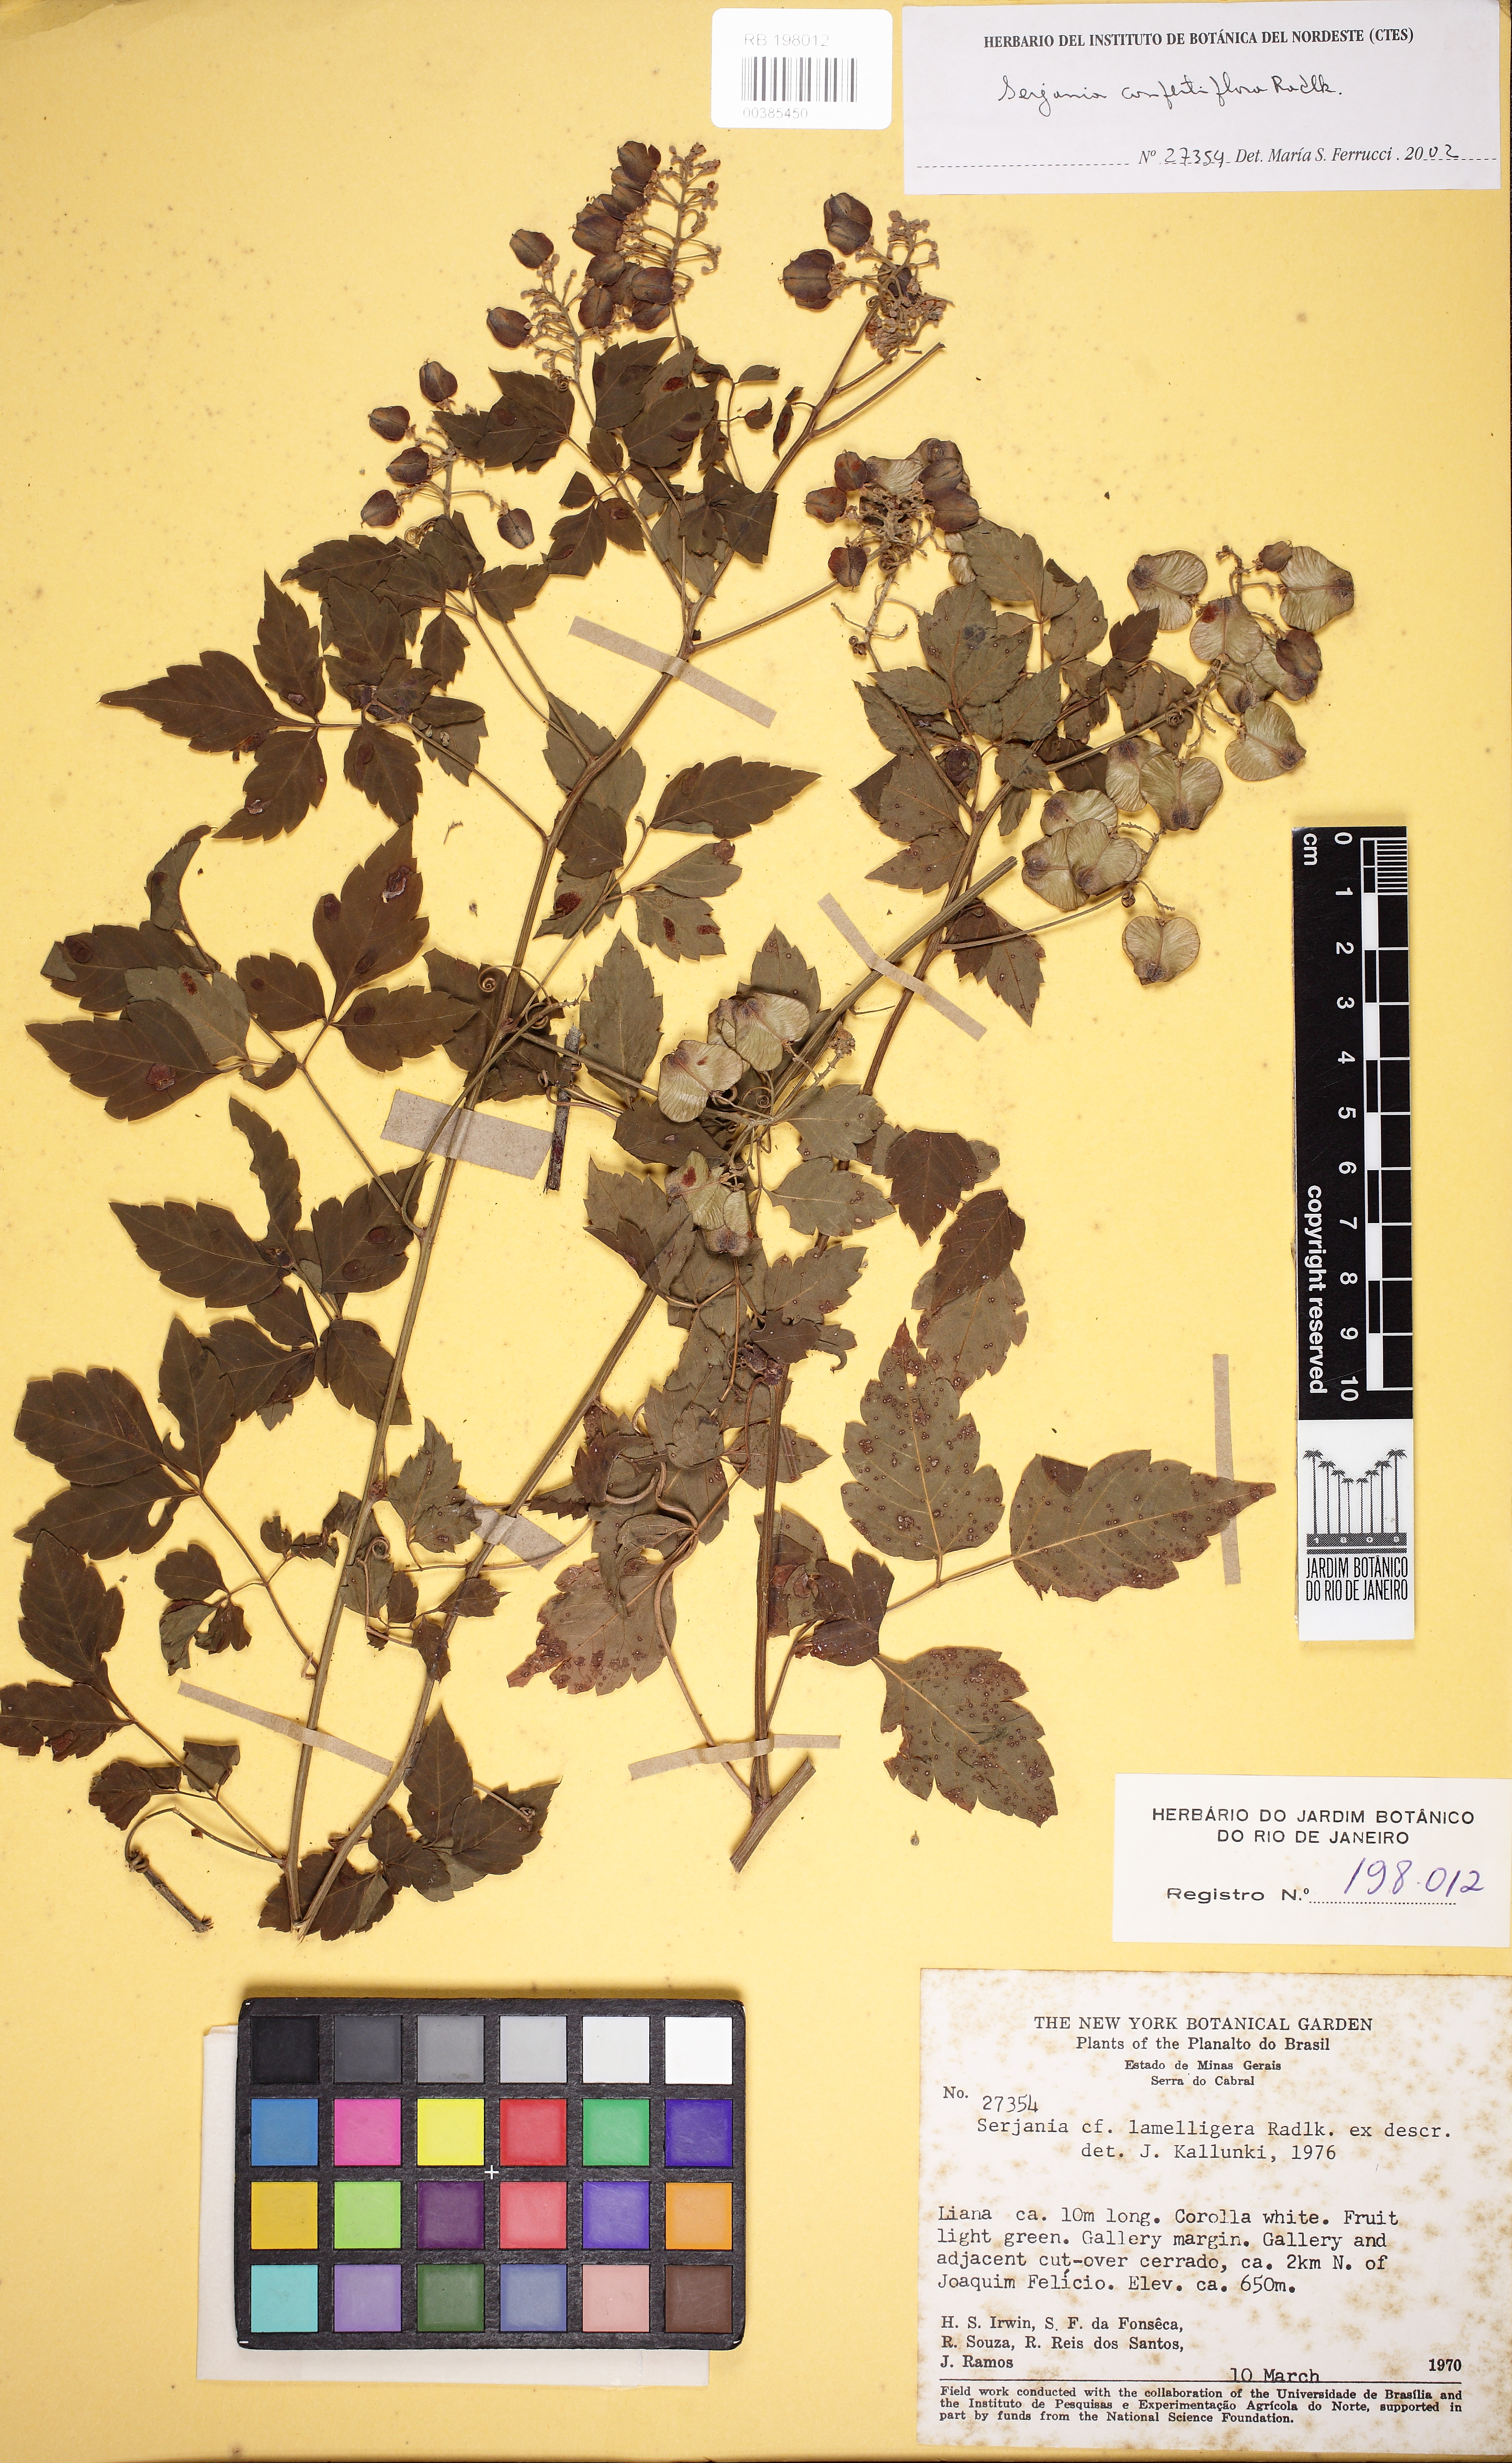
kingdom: Plantae
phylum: Tracheophyta
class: Magnoliopsida
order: Sapindales
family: Sapindaceae
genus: Serjania
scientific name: Serjania lamelligera
